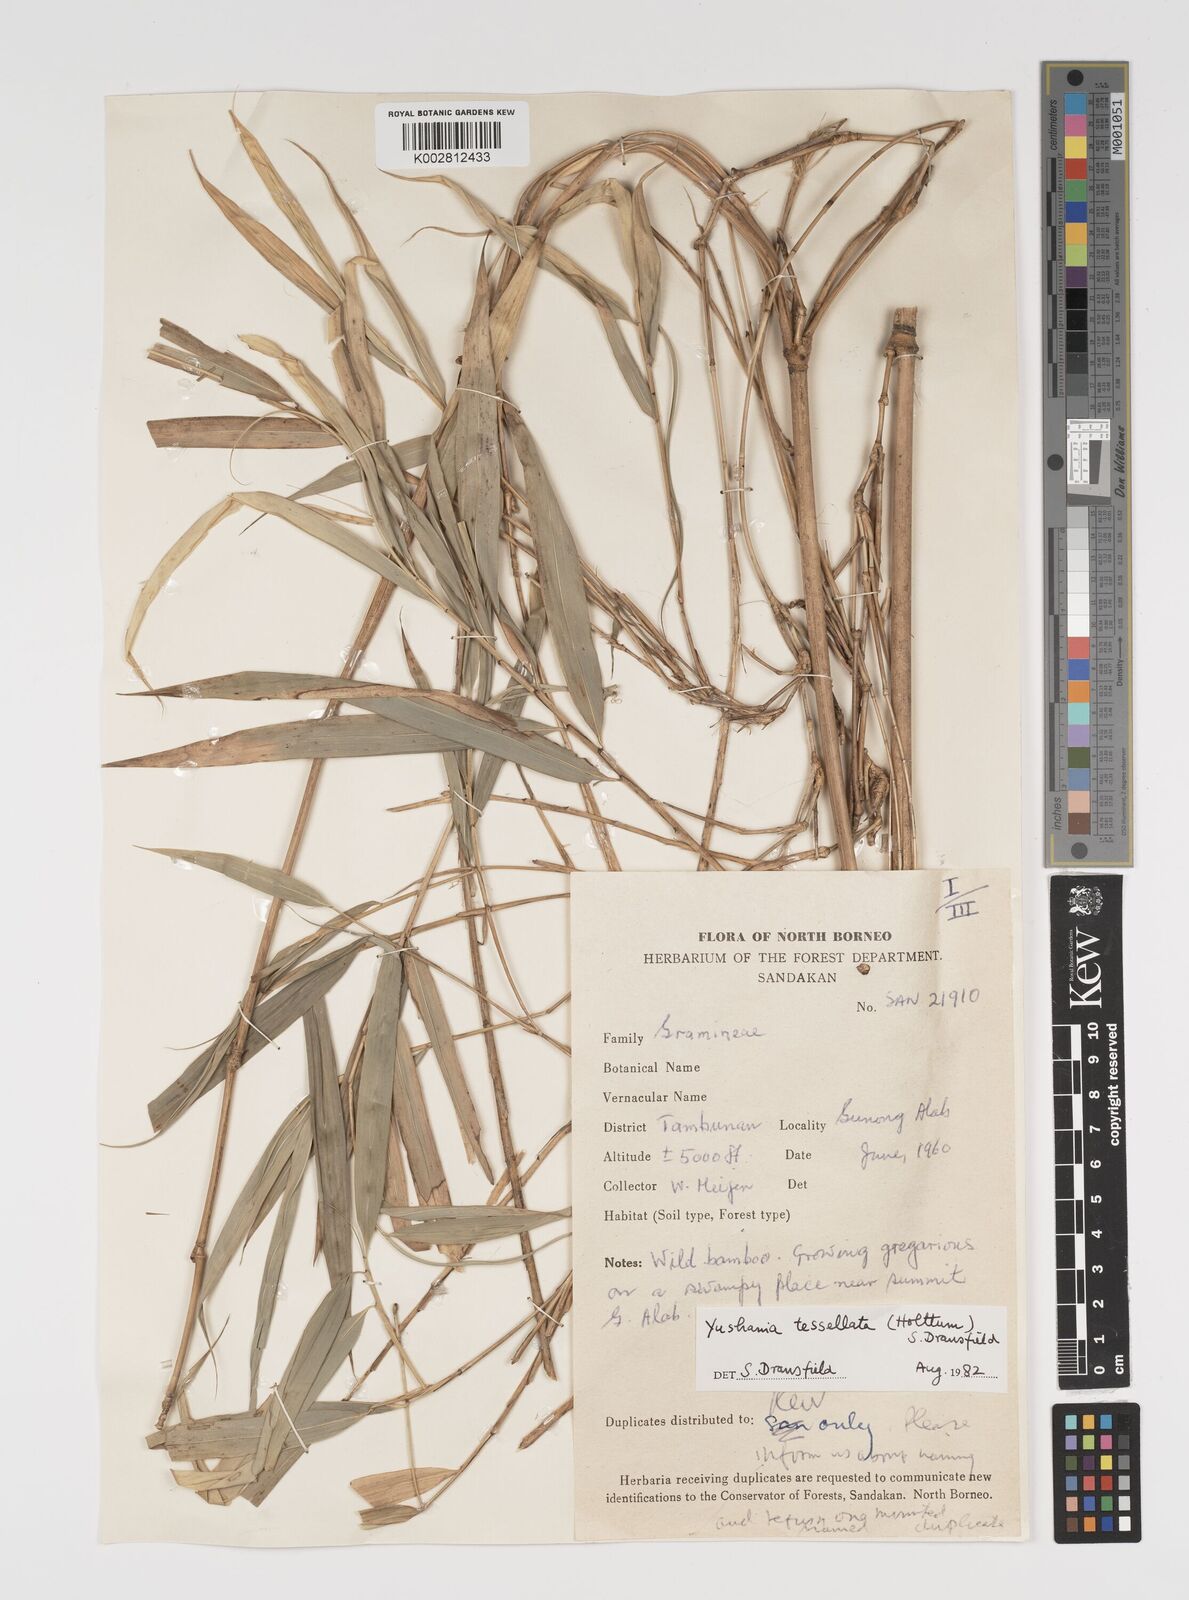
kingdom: Plantae
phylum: Tracheophyta
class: Liliopsida
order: Poales
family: Poaceae
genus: Yushania
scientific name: Yushania tessellata
